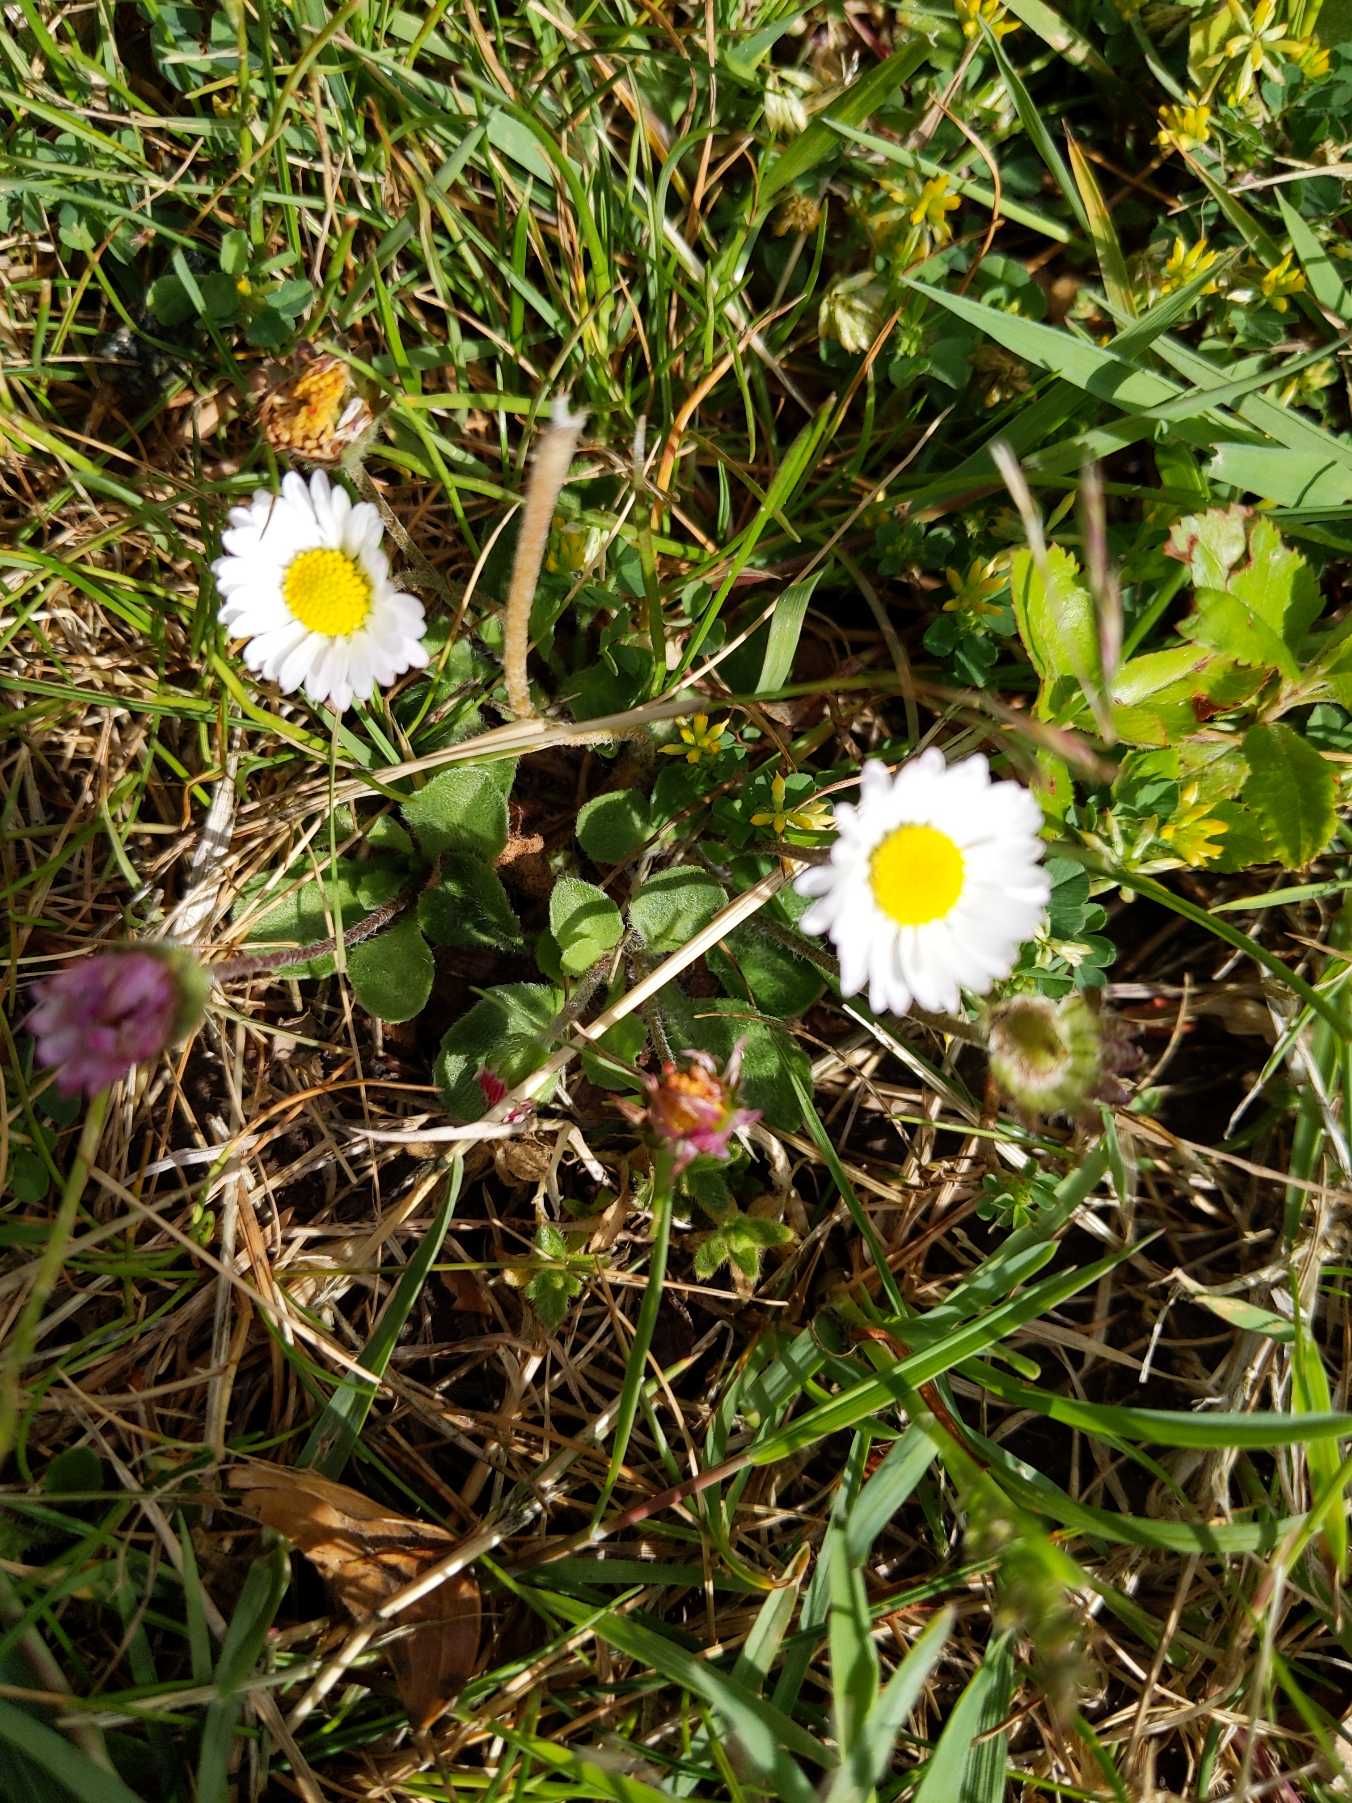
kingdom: Plantae
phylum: Tracheophyta
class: Magnoliopsida
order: Asterales
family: Asteraceae
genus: Bellis
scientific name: Bellis perennis
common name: Tusindfryd
